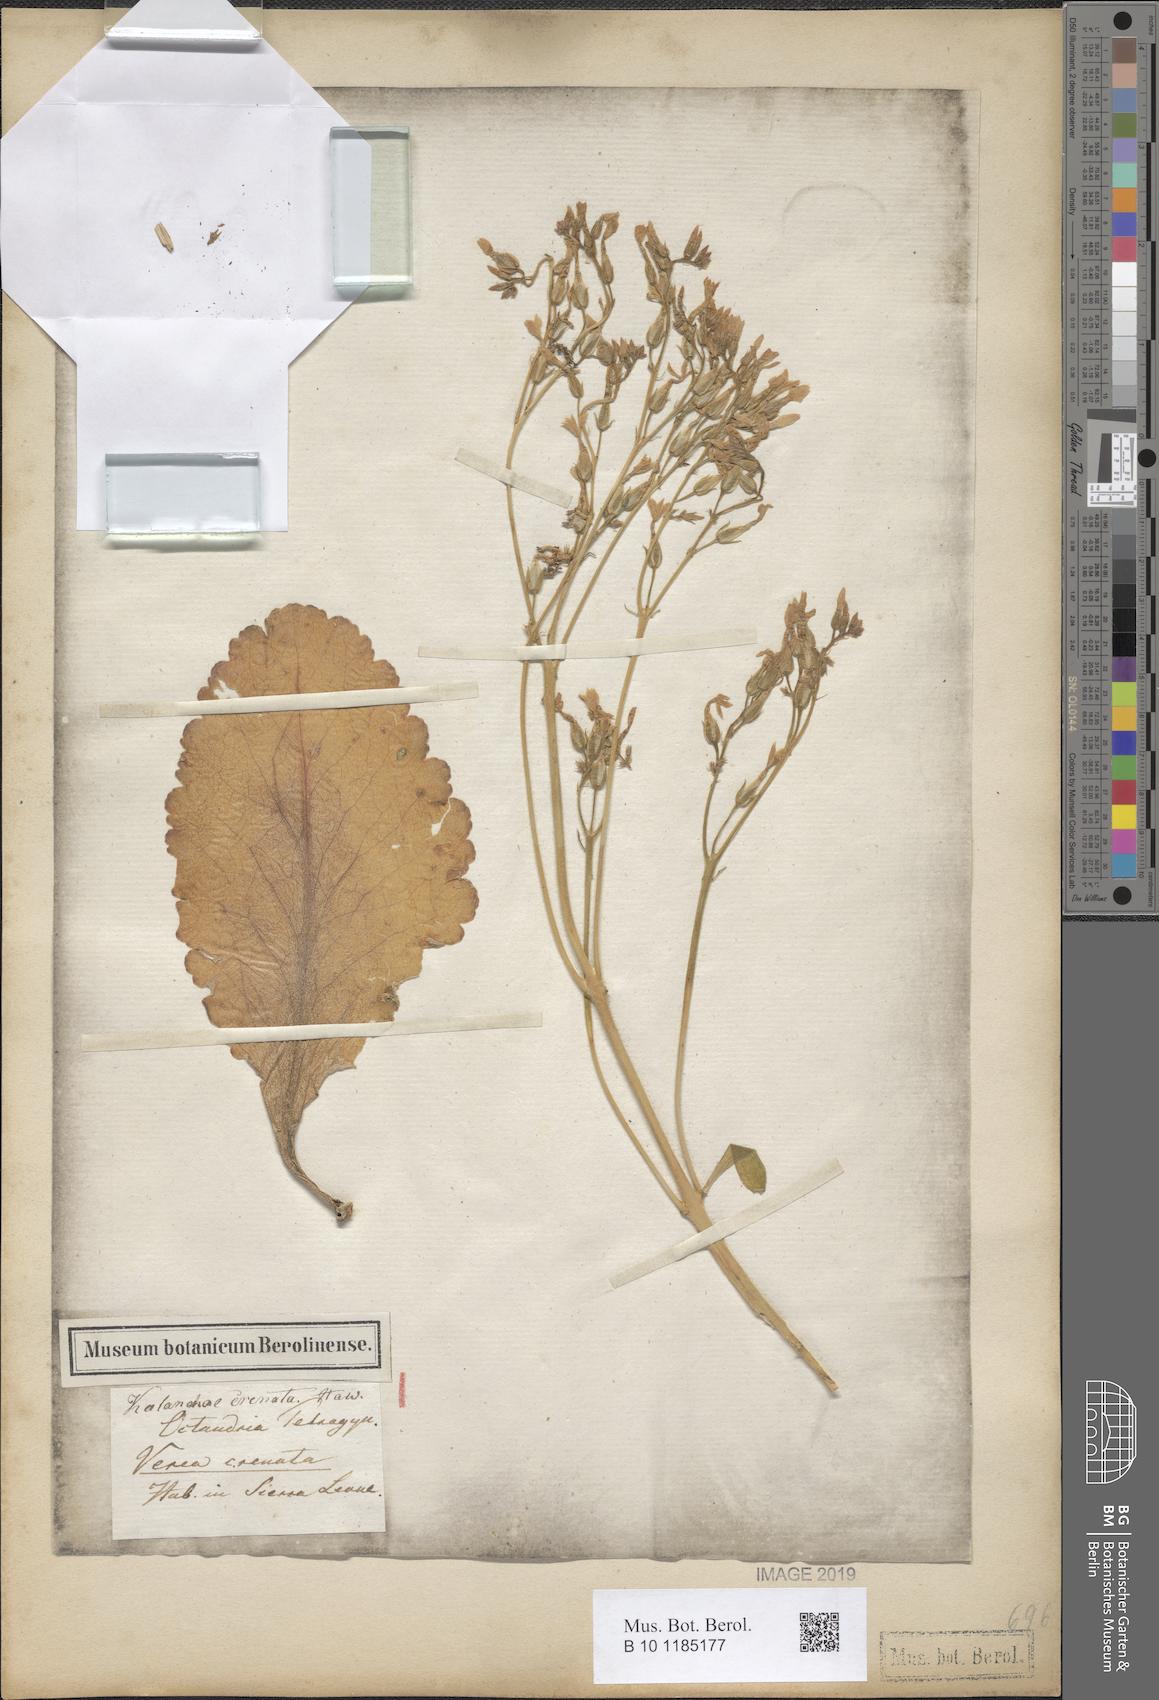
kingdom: Plantae
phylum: Tracheophyta
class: Magnoliopsida
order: Saxifragales
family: Crassulaceae
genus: Kalanchoe
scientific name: Kalanchoe crenata
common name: Neverdie
